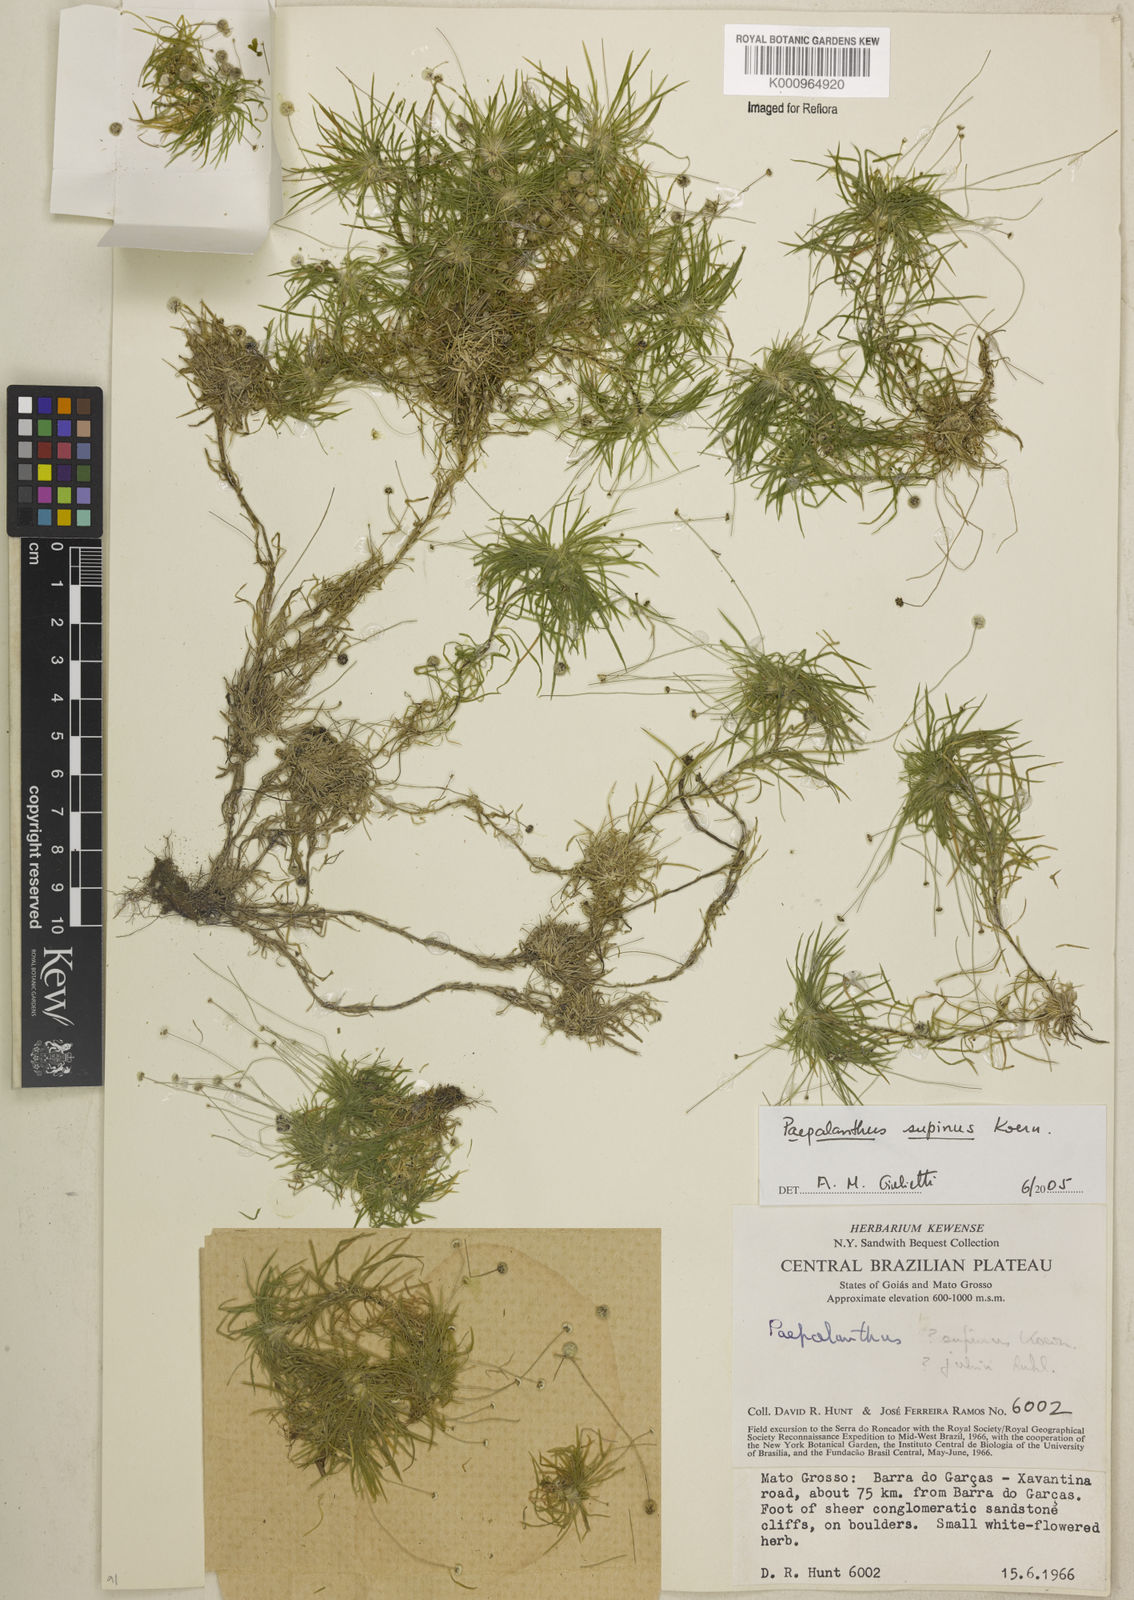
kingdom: Plantae
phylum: Tracheophyta
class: Liliopsida
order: Poales
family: Eriocaulaceae
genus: Paepalanthus
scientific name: Paepalanthus
